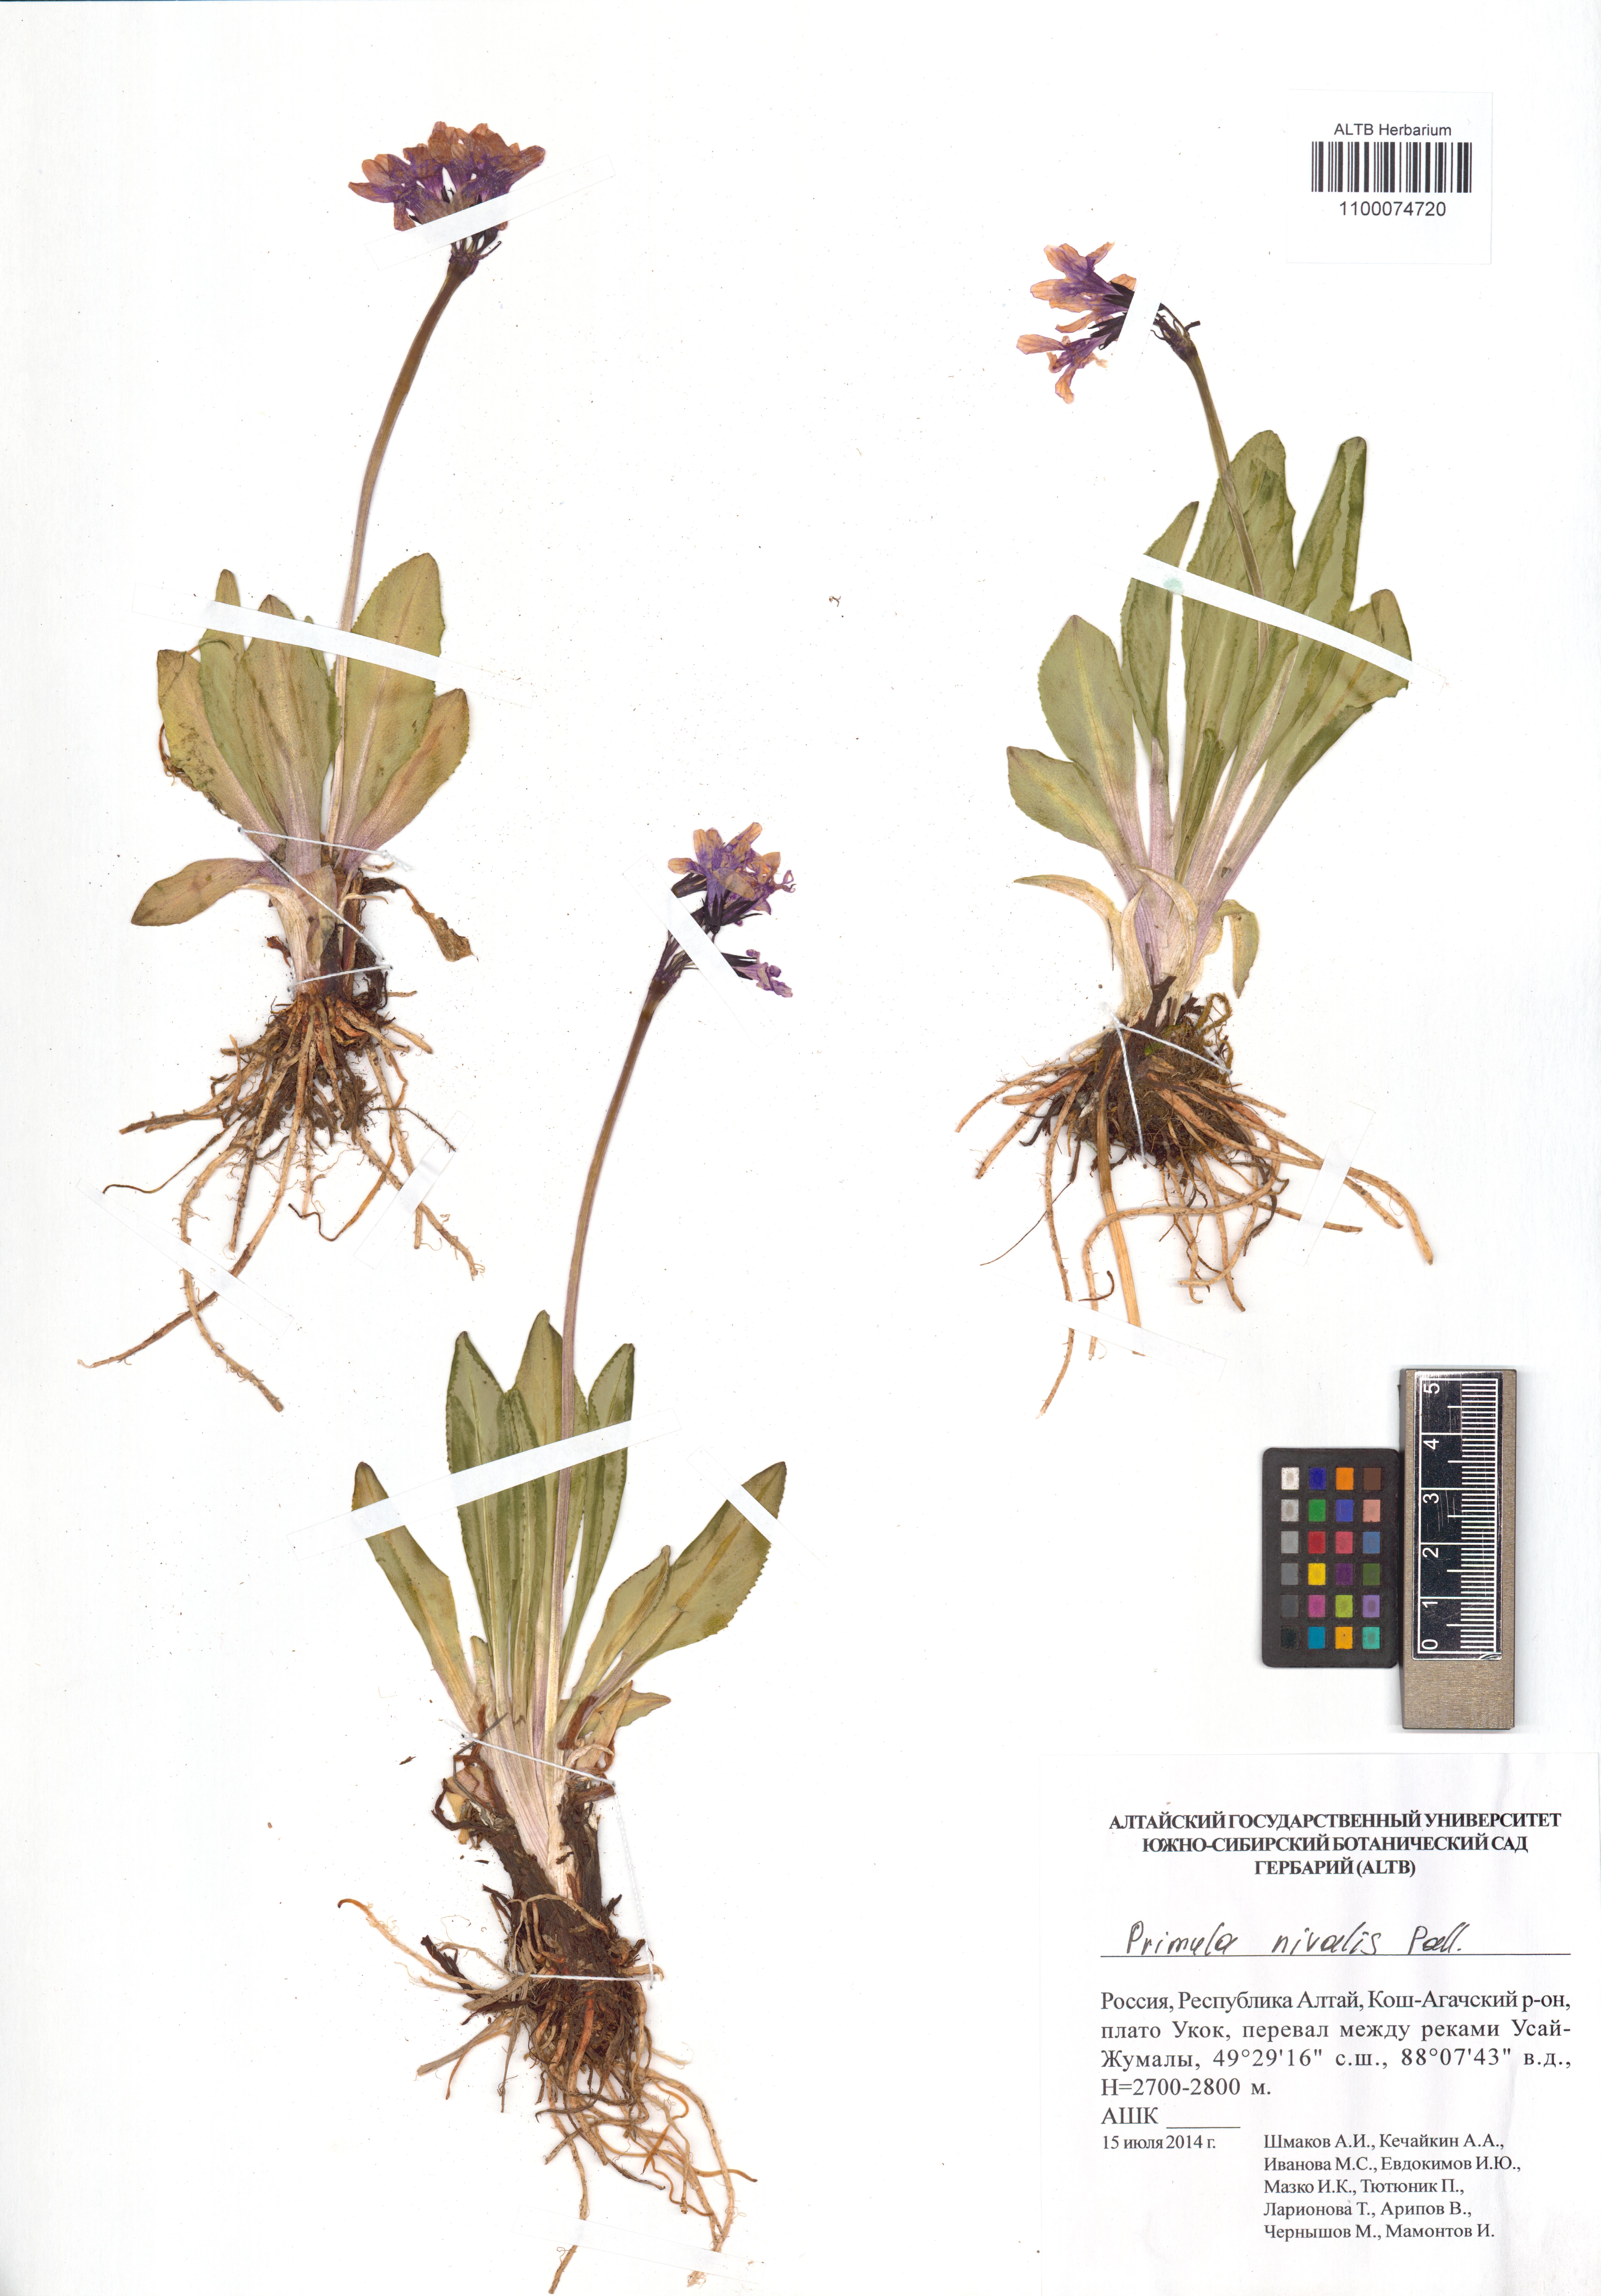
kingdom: Plantae
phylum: Tracheophyta
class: Magnoliopsida
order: Ericales
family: Primulaceae
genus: Primula
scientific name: Primula nivalis
